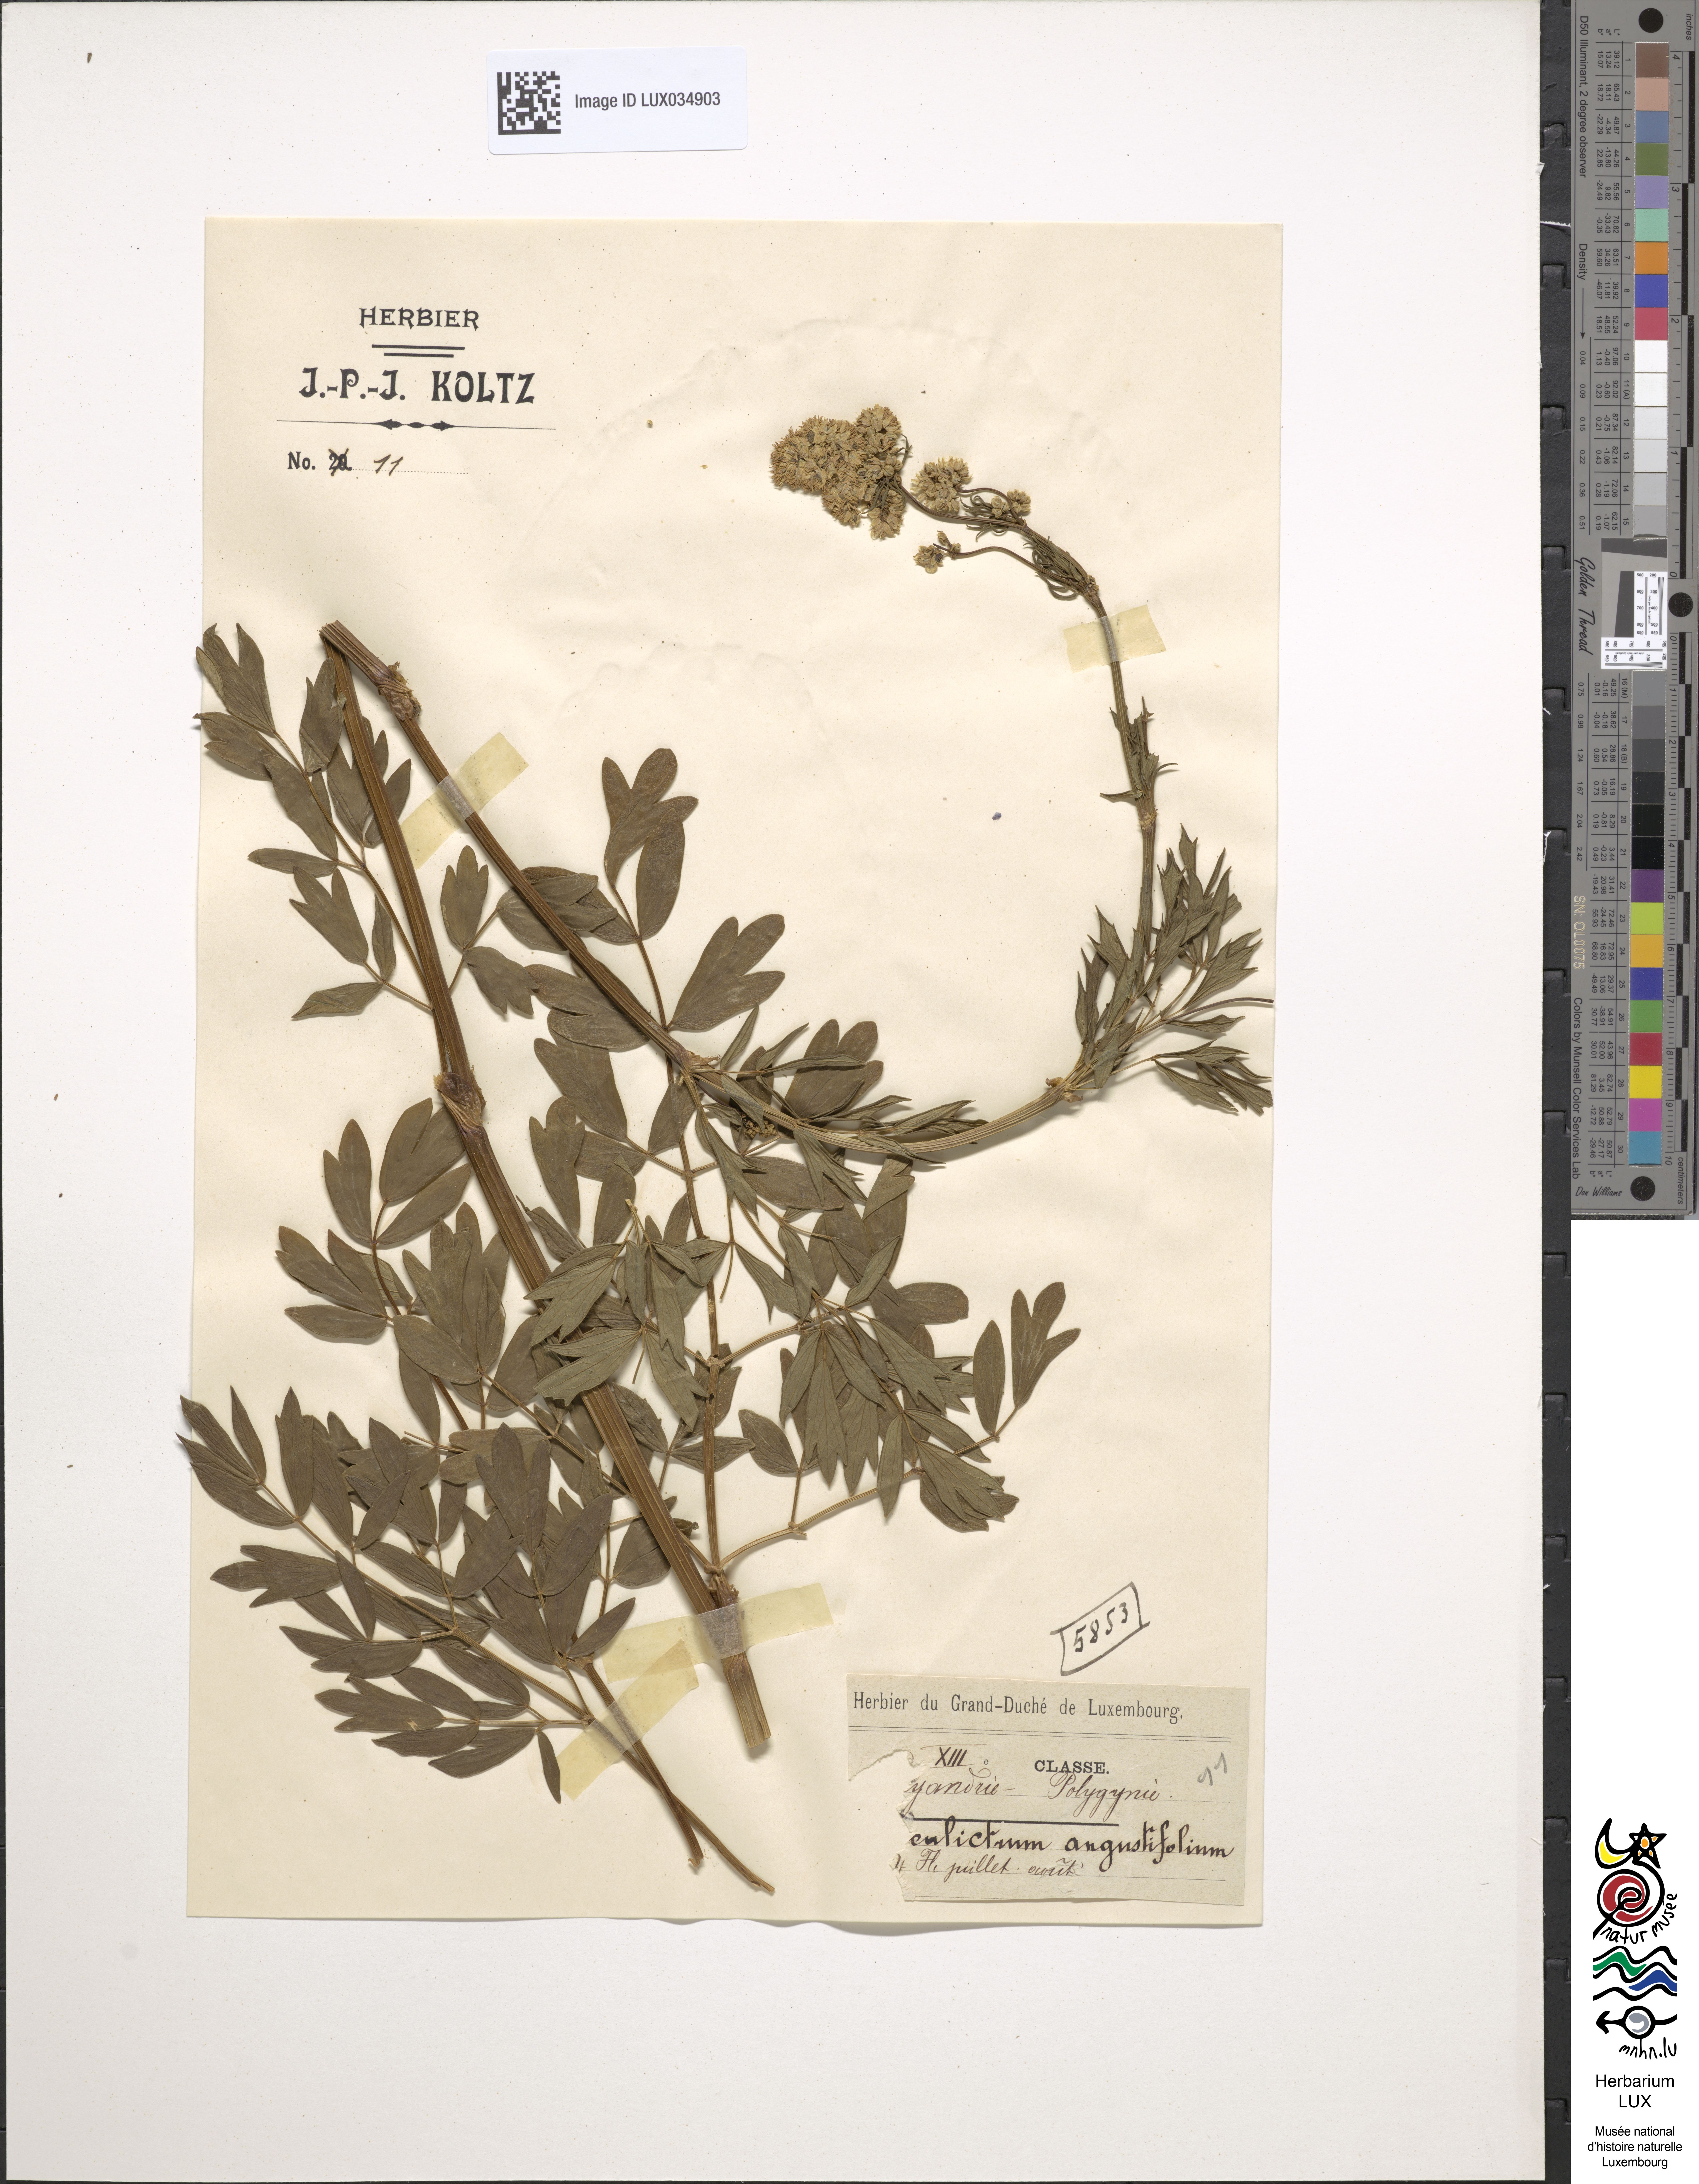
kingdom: Plantae
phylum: Tracheophyta
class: Magnoliopsida
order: Ranunculales
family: Ranunculaceae
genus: Thalictrum
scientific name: Thalictrum lucidum
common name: Shining meadow-rue
